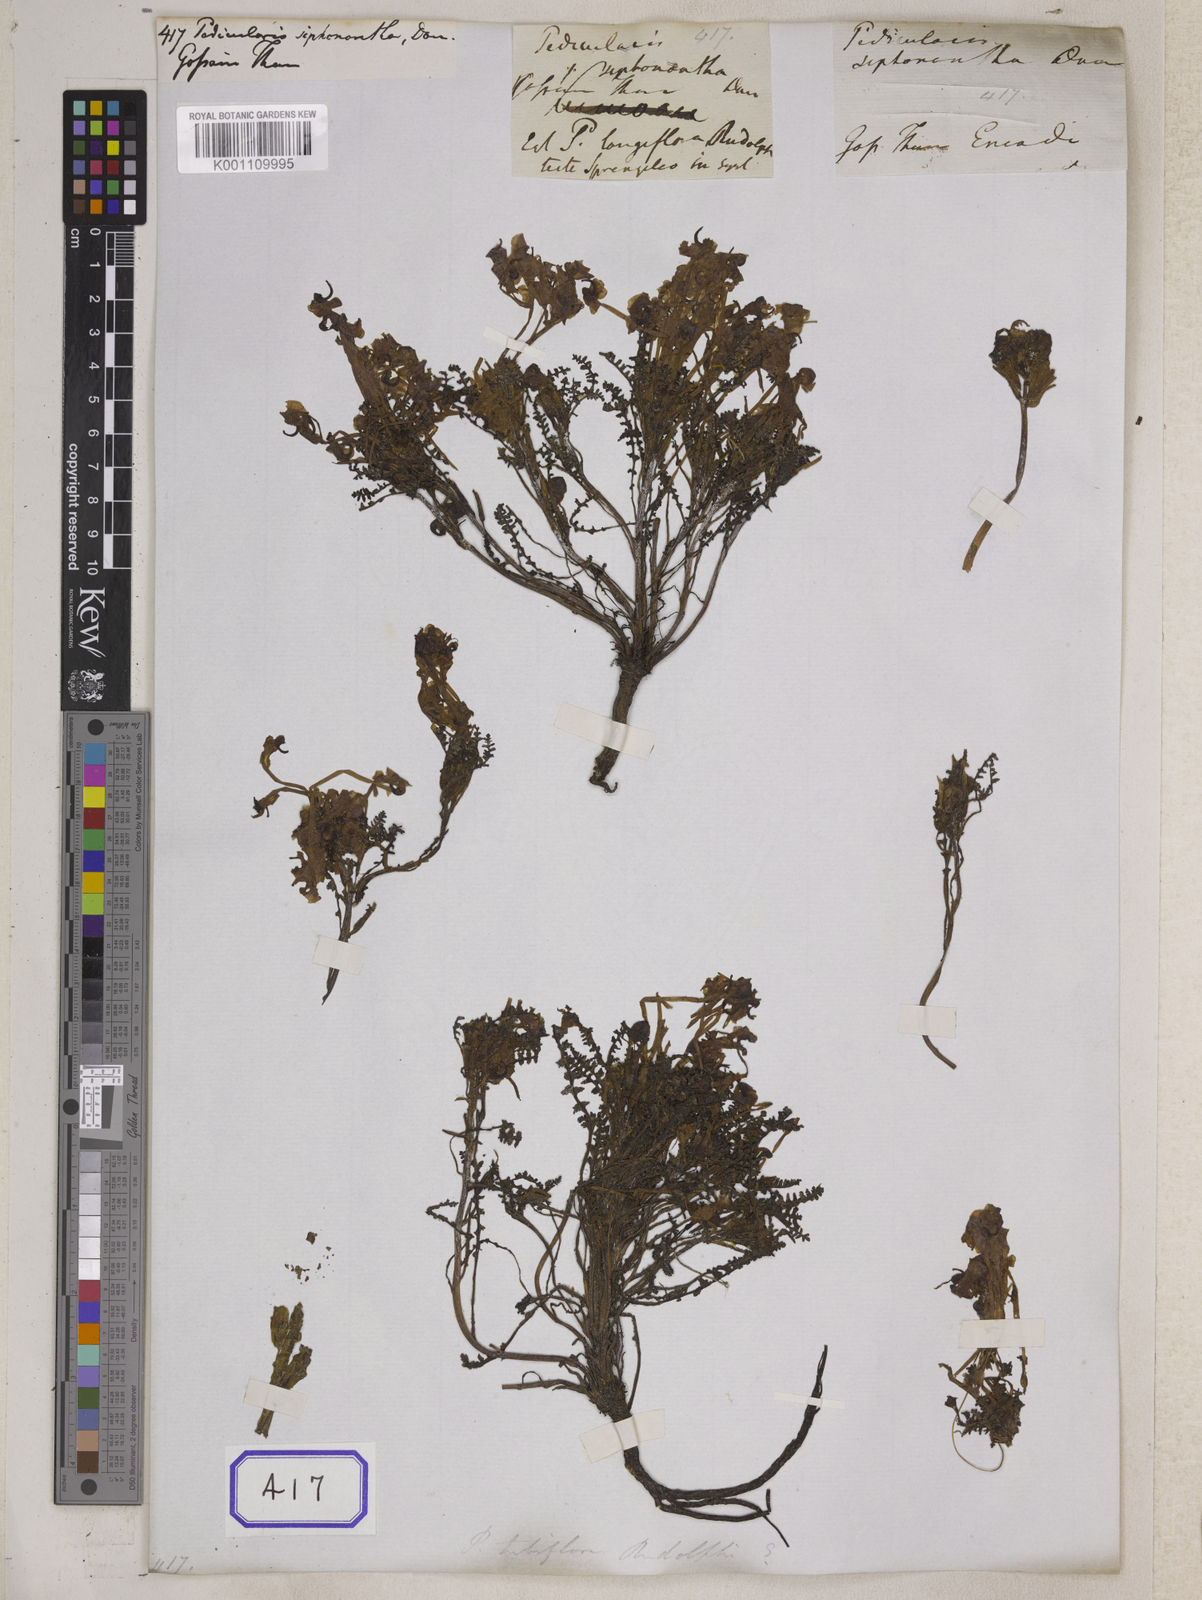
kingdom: Plantae
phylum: Tracheophyta
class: Magnoliopsida
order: Lamiales
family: Orobanchaceae
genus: Pedicularis
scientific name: Pedicularis siphonantha
